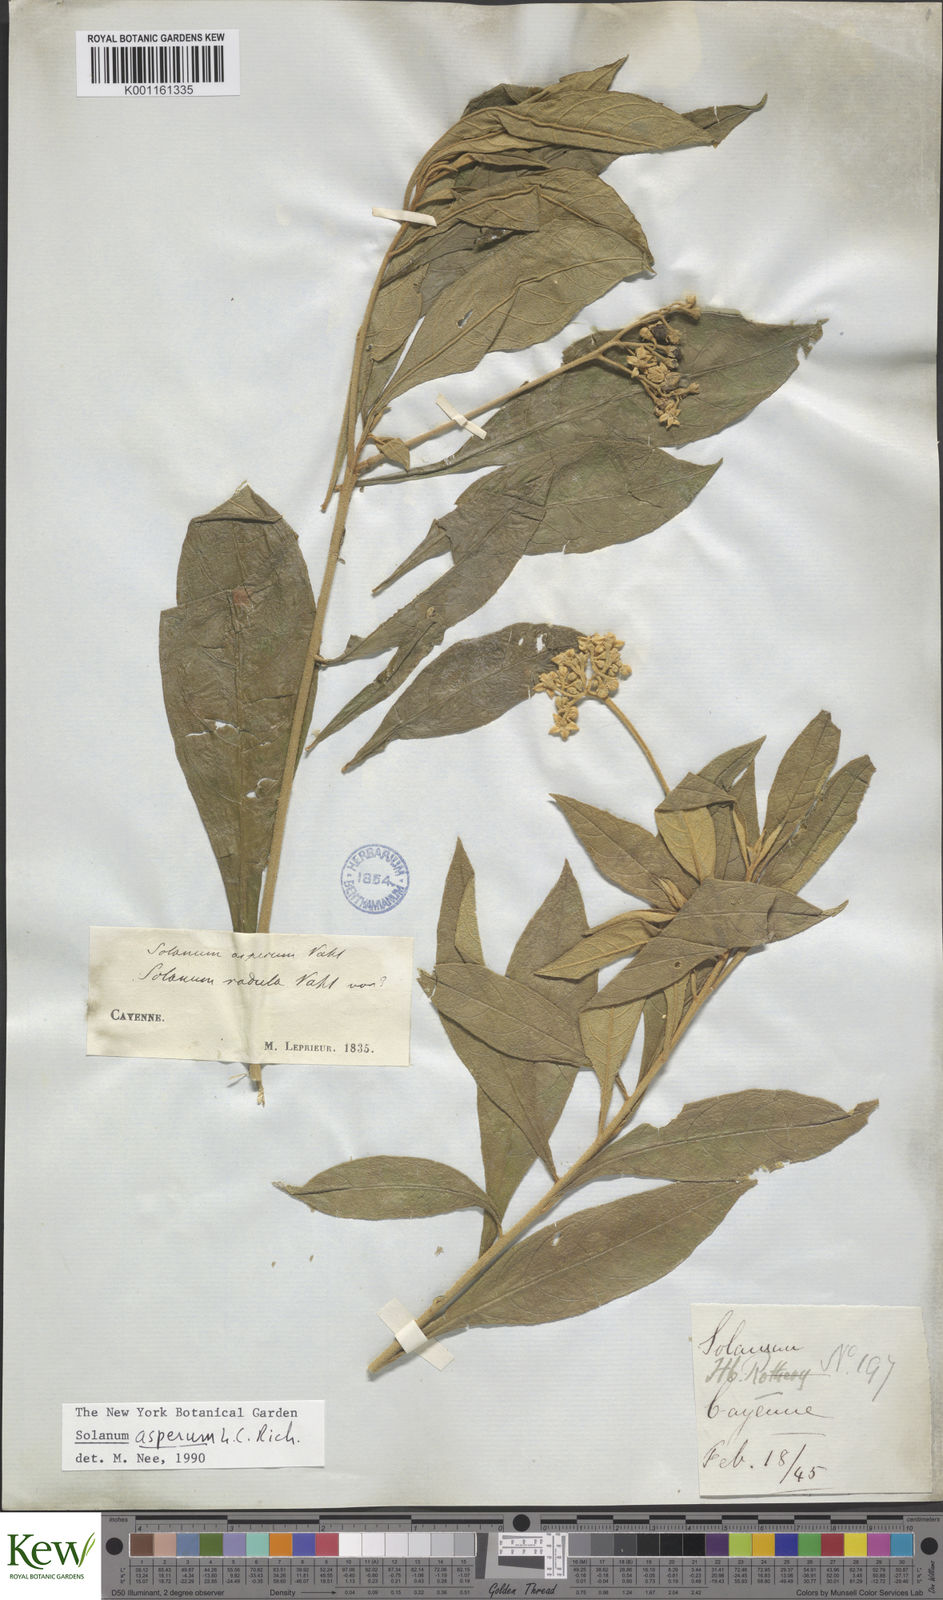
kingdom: Plantae
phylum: Tracheophyta
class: Magnoliopsida
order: Solanales
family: Solanaceae
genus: Solanum
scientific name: Solanum asperum
